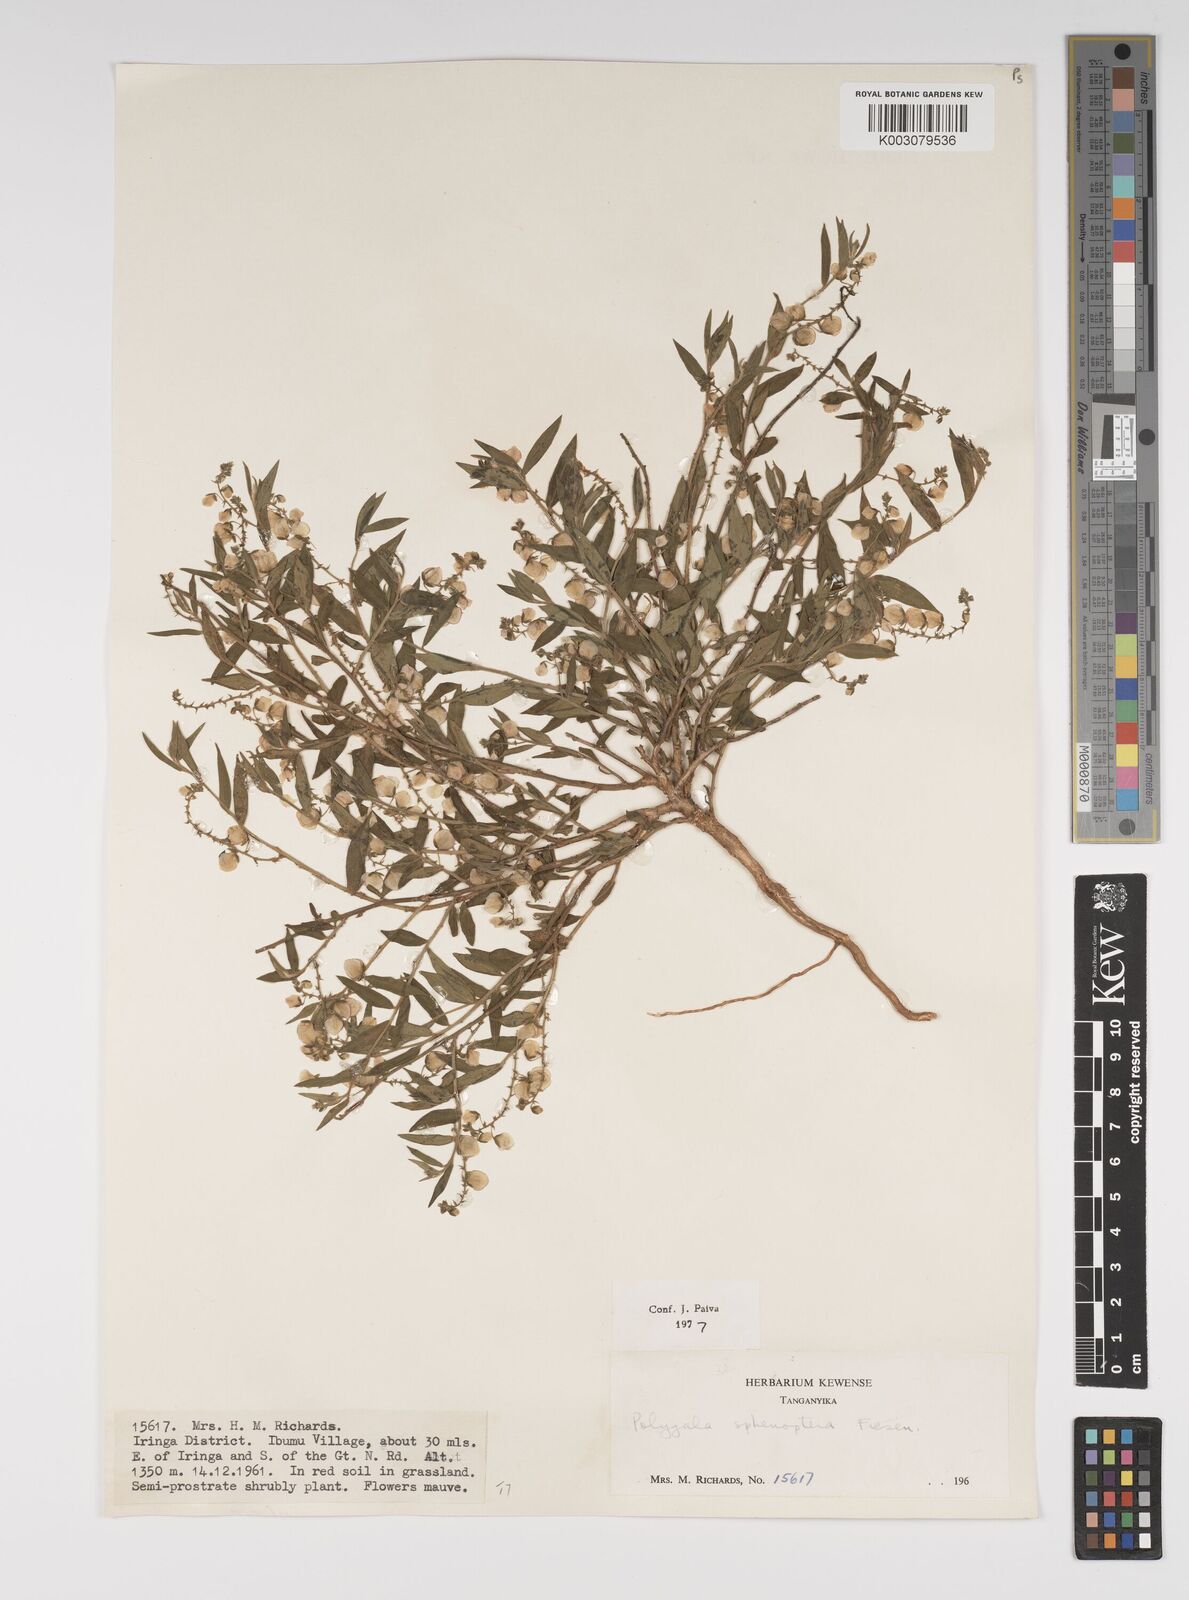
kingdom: Plantae
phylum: Tracheophyta
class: Magnoliopsida
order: Fabales
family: Polygalaceae
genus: Polygala
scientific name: Polygala sphenoptera
